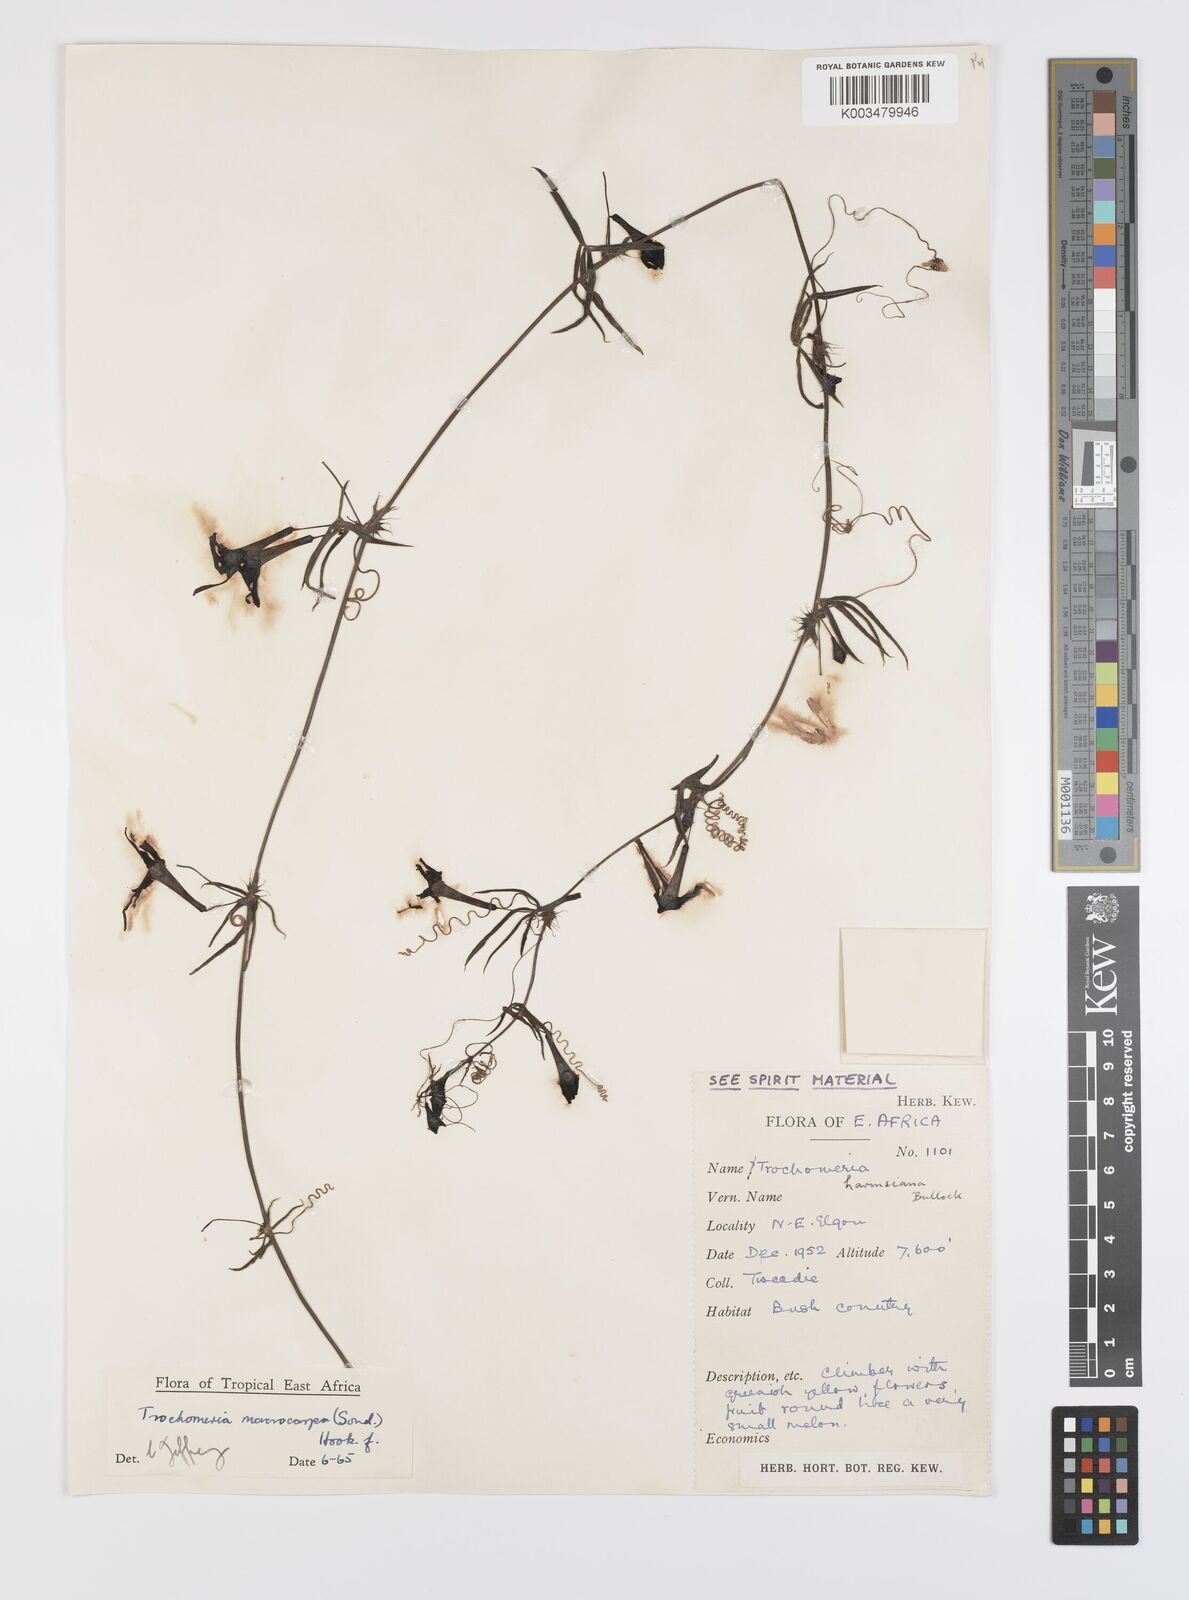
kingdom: Plantae
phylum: Tracheophyta
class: Magnoliopsida
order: Cucurbitales
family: Cucurbitaceae
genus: Trochomeria
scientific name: Trochomeria macrocarpa
